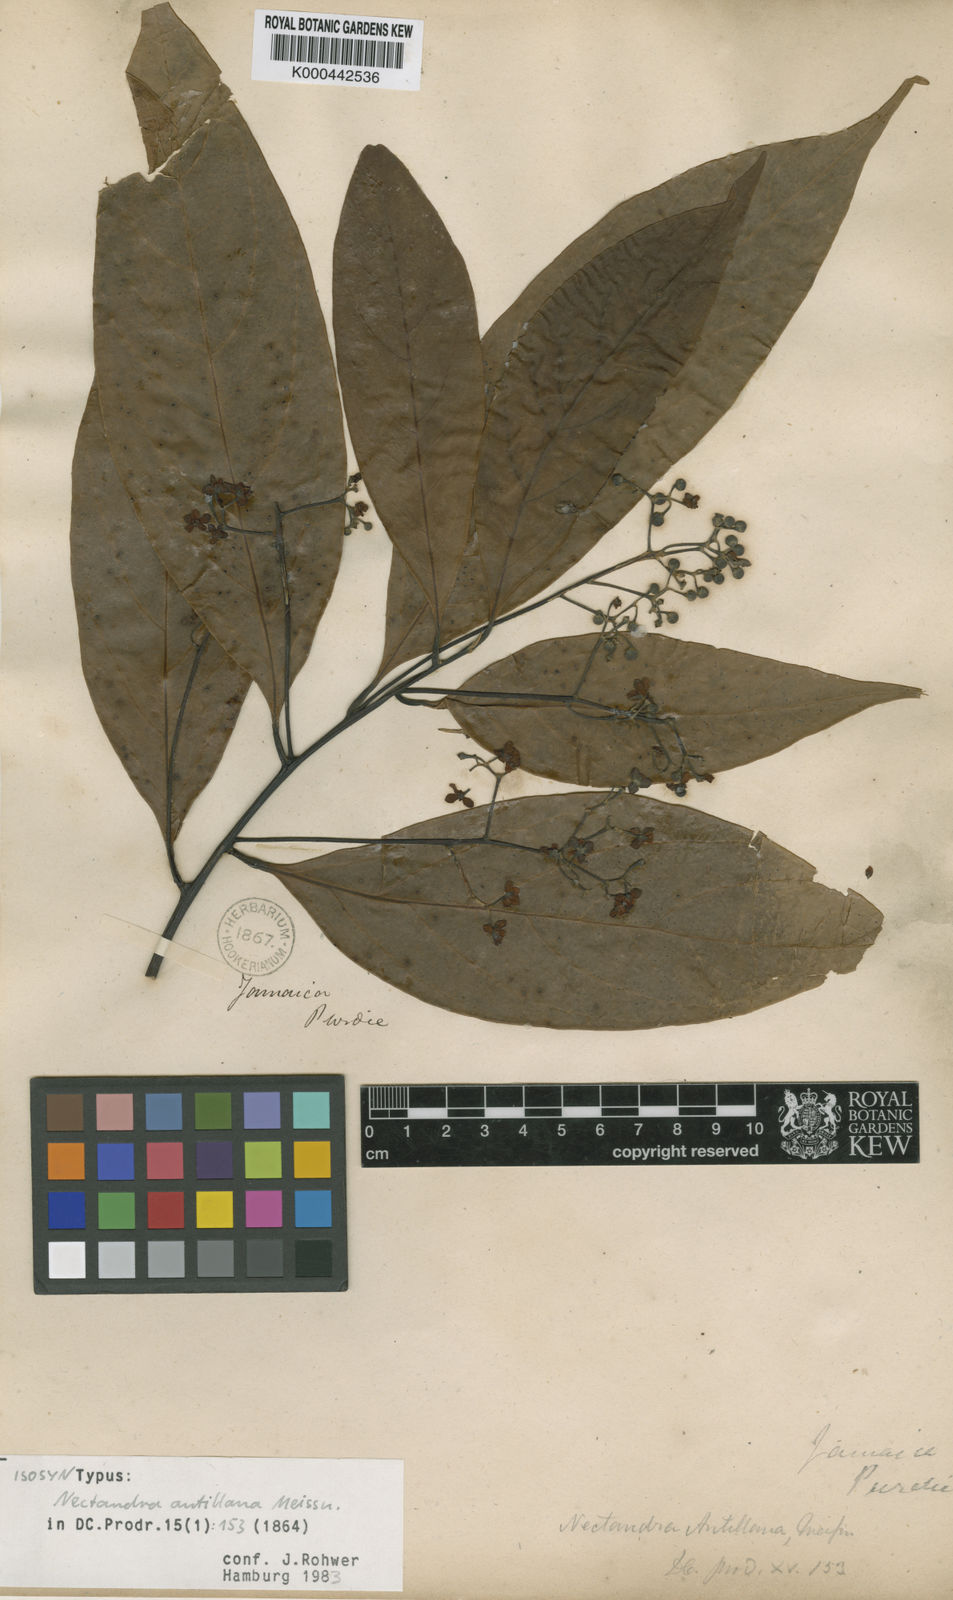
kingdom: Plantae
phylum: Tracheophyta
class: Magnoliopsida
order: Laurales
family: Lauraceae
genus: Nectandra
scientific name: Nectandra hihua
